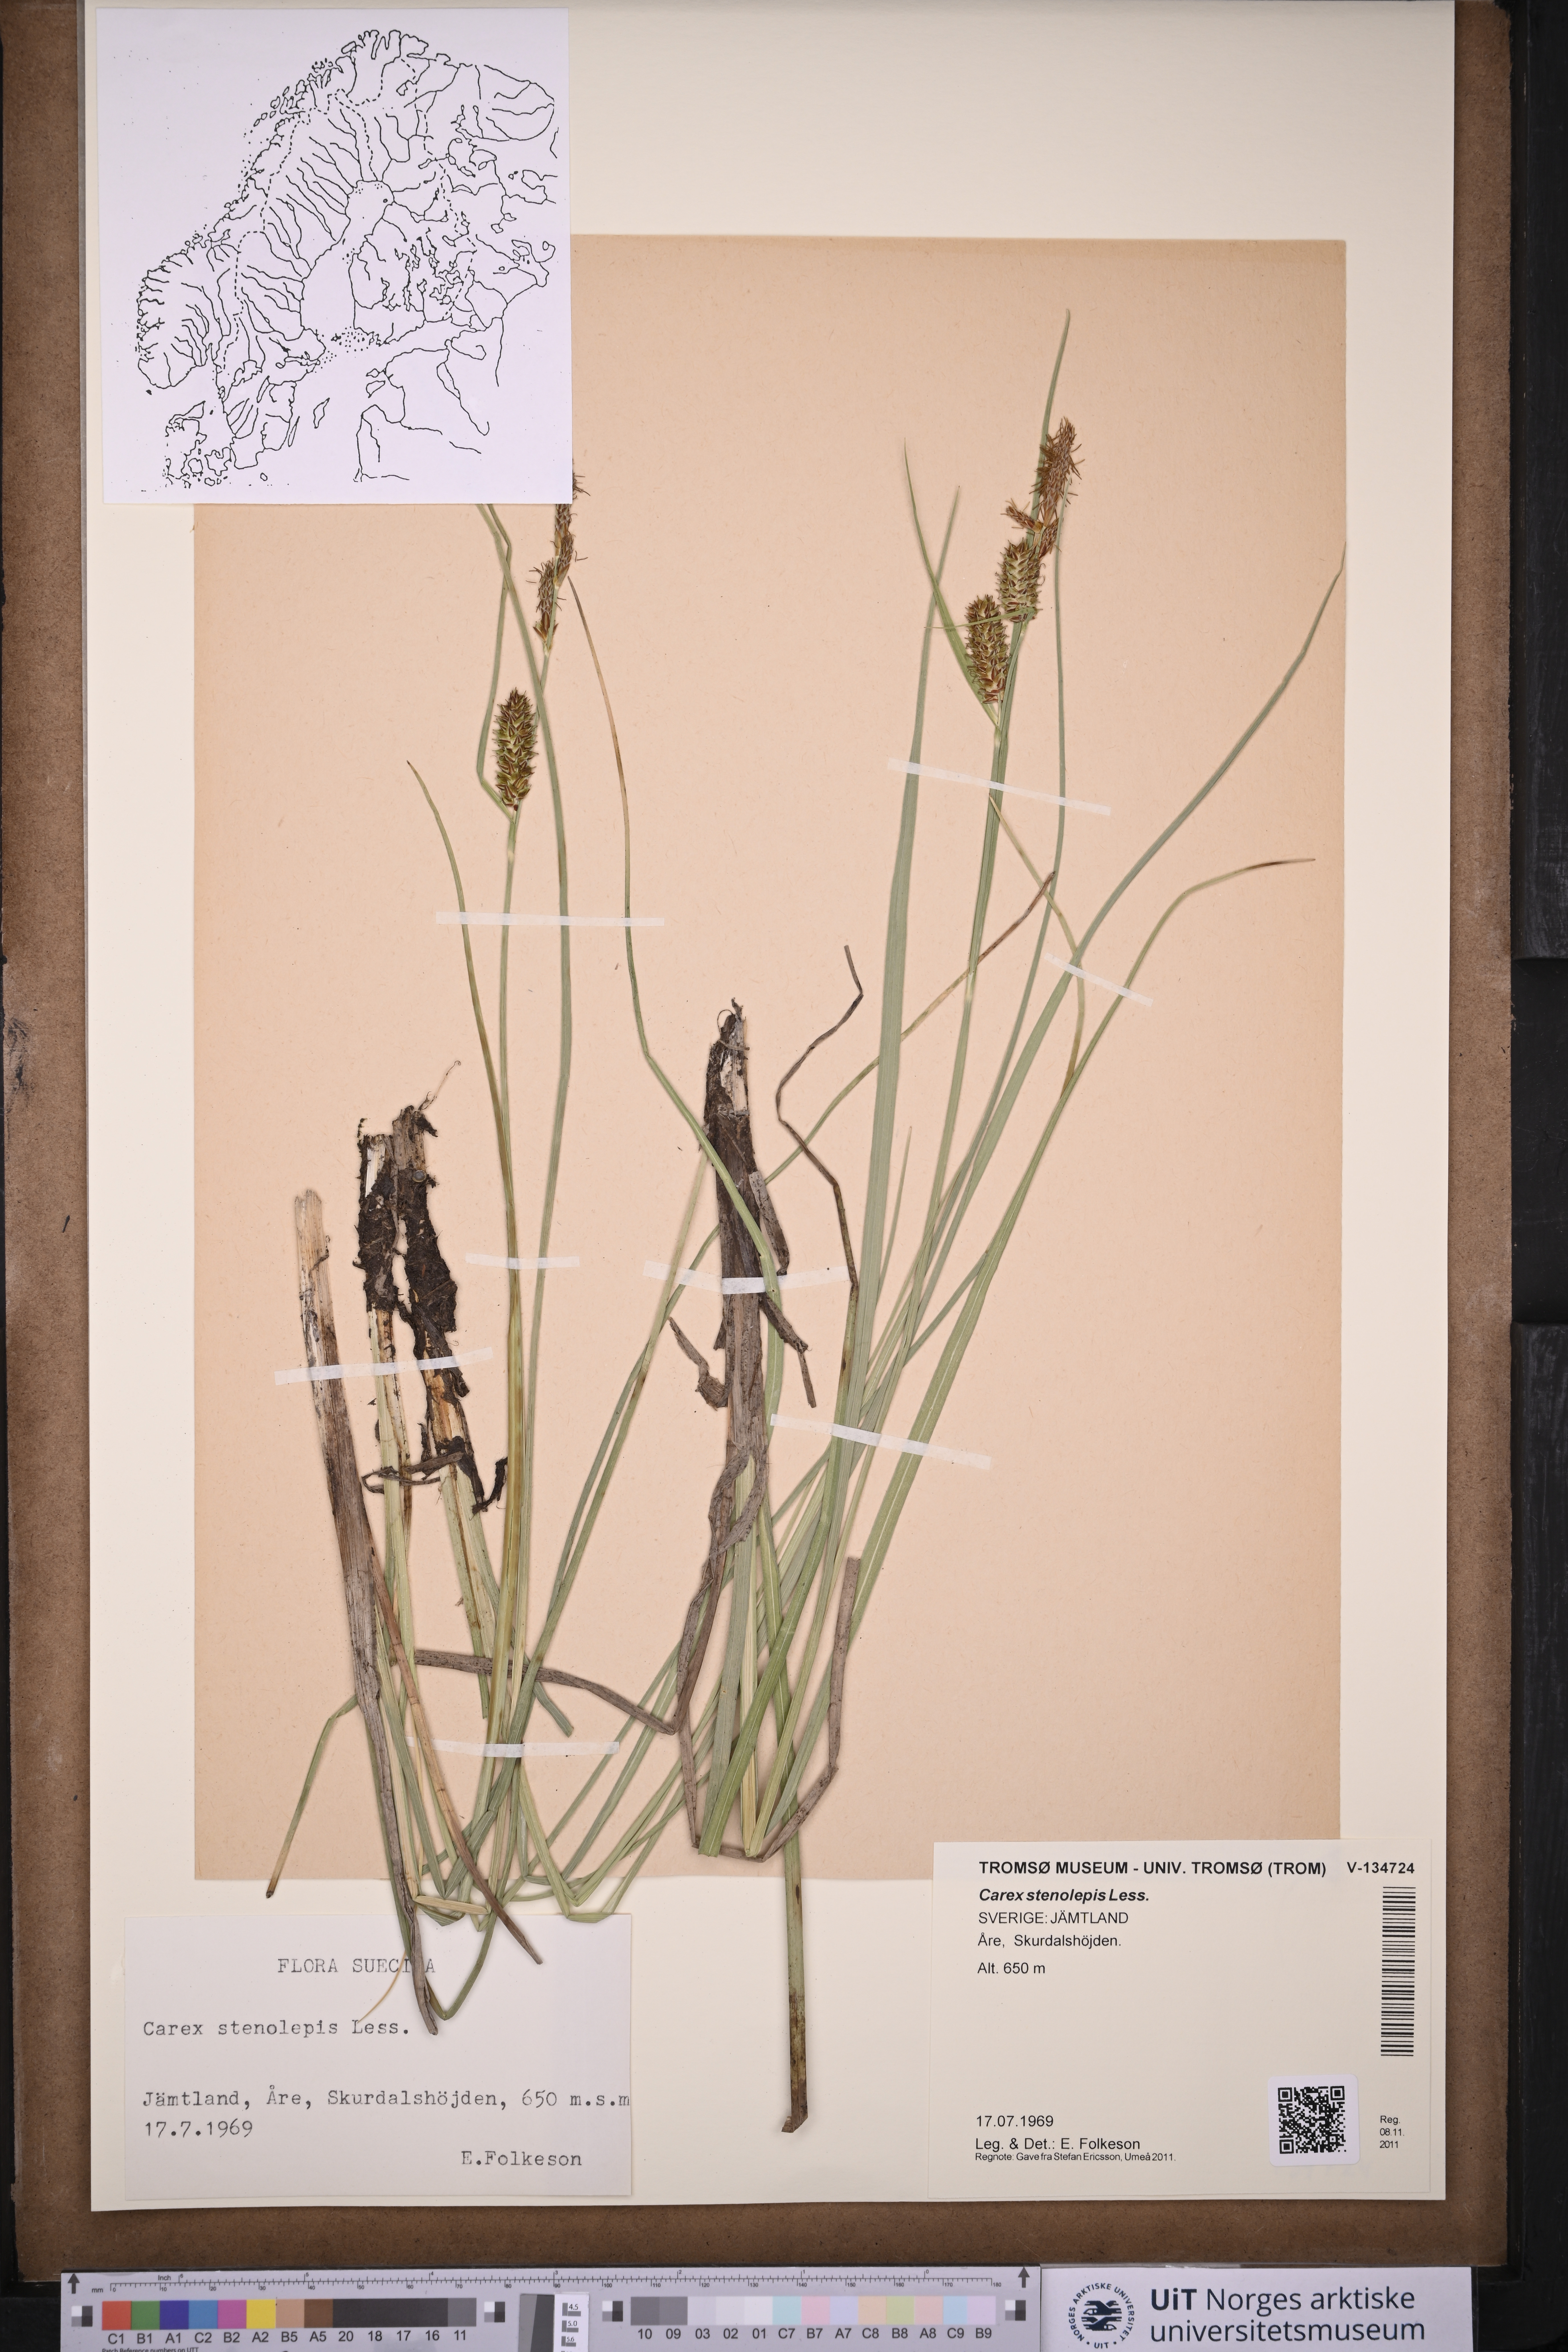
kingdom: Plantae
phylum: Tracheophyta
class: Liliopsida
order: Poales
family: Cyperaceae
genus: Carex
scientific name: Carex grahamii
